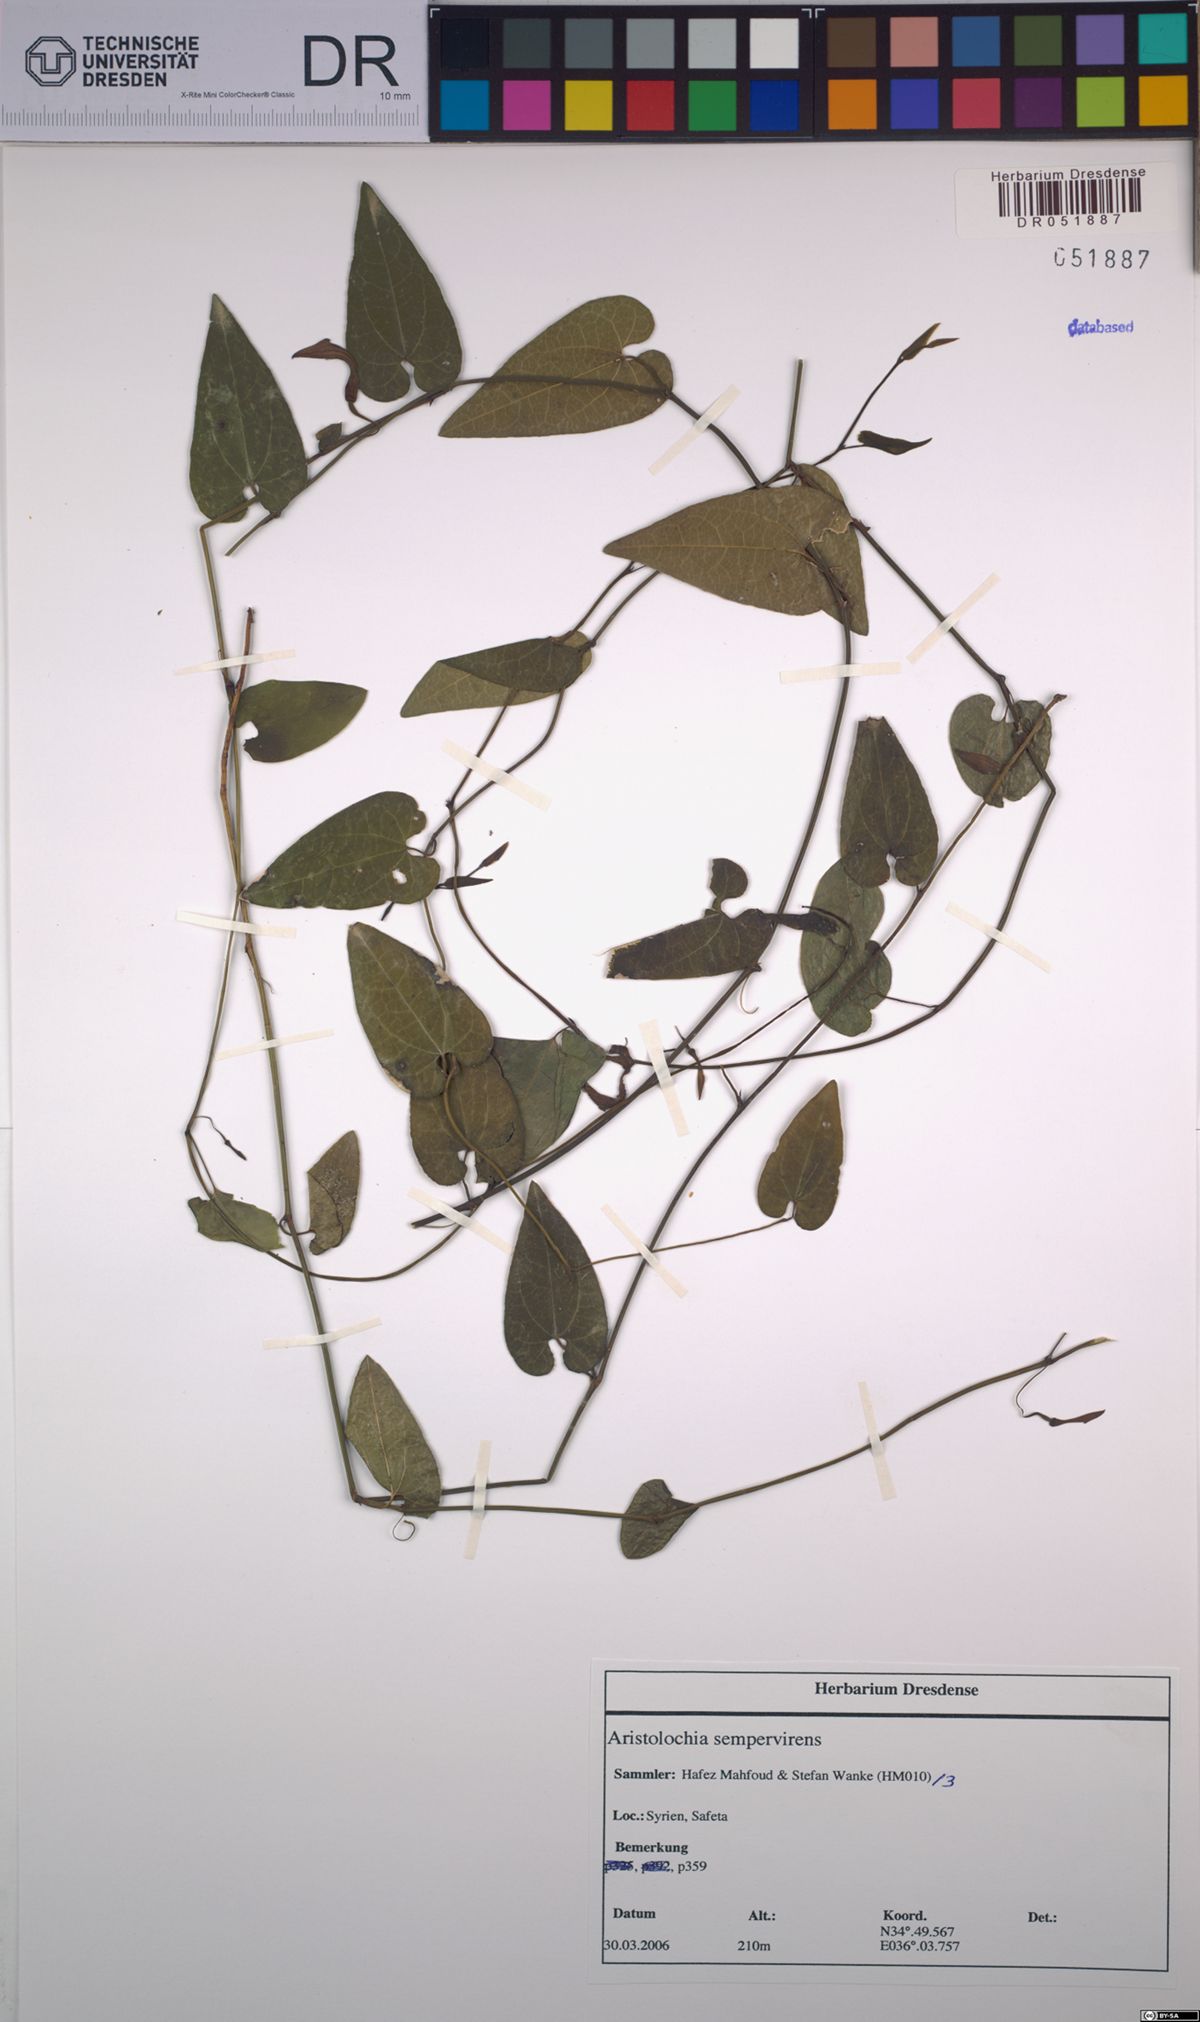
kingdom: Plantae
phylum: Tracheophyta
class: Magnoliopsida
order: Piperales
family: Aristolochiaceae
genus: Aristolochia
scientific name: Aristolochia sempervirens
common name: Long birthwort
